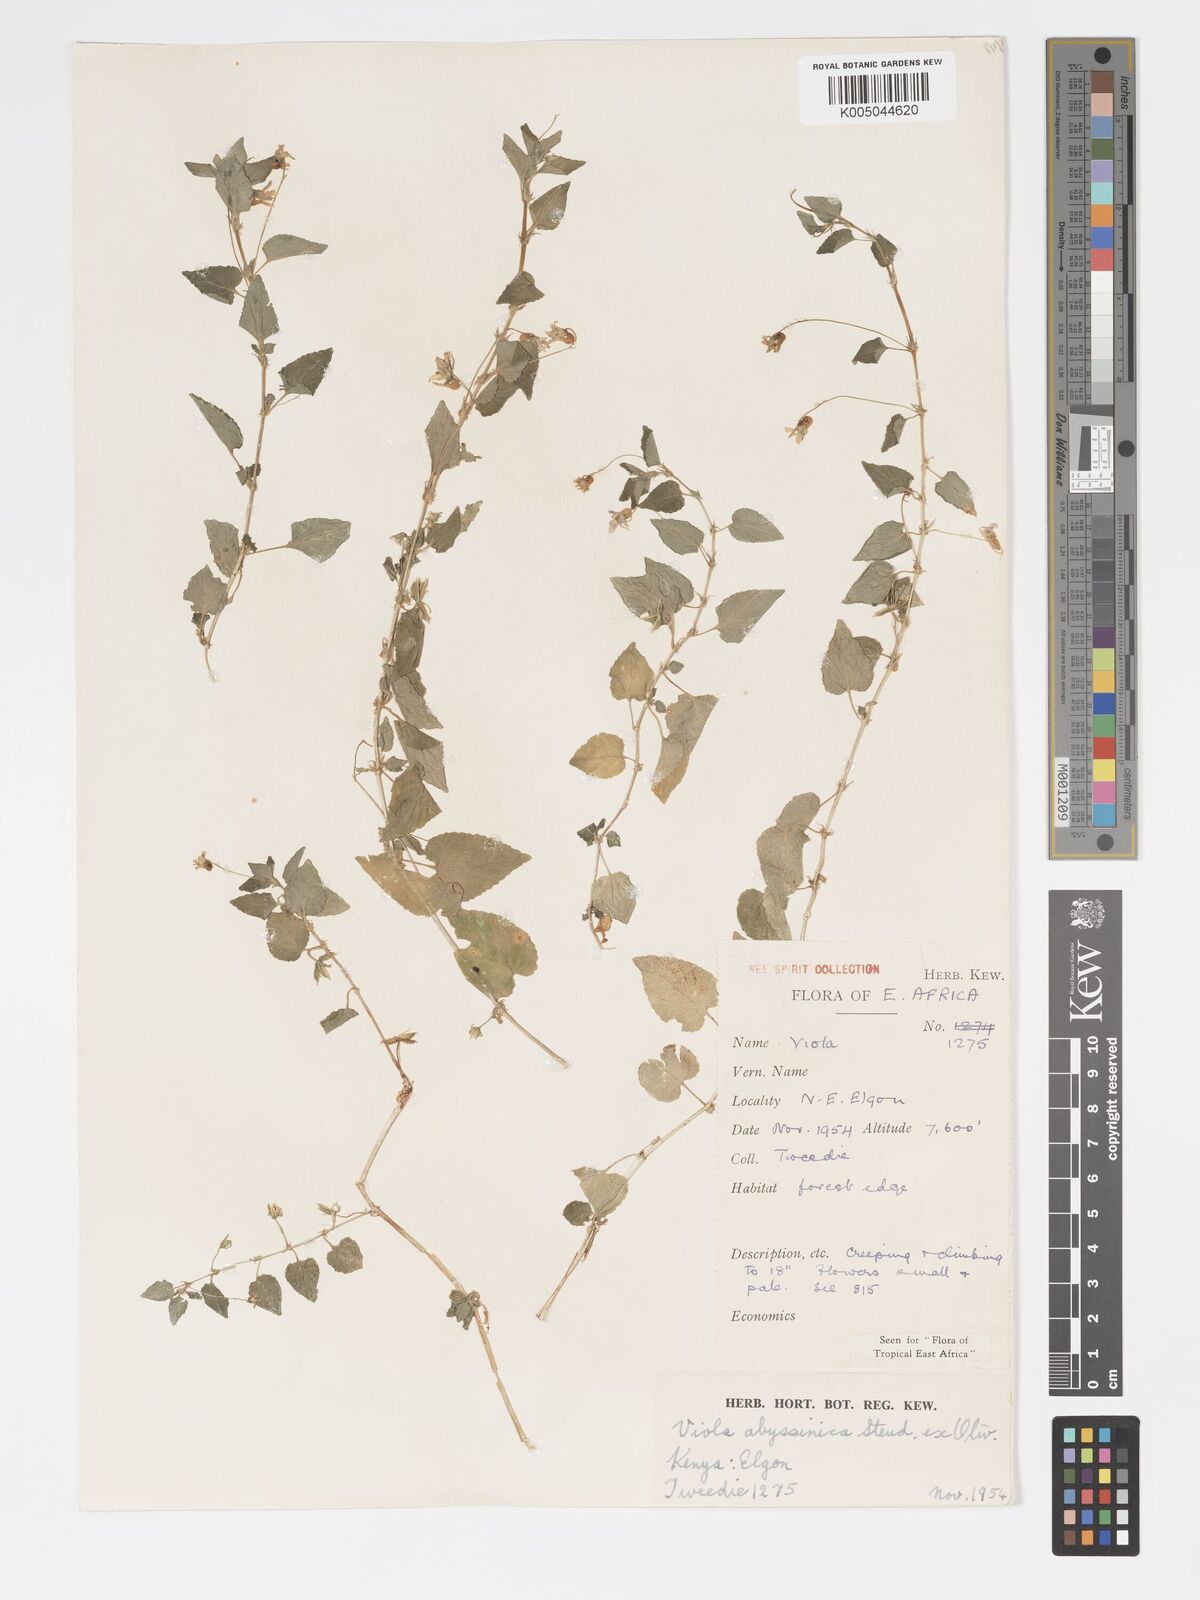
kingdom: Plantae
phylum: Tracheophyta
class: Magnoliopsida
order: Malpighiales
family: Violaceae
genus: Viola
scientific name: Viola abyssinica
